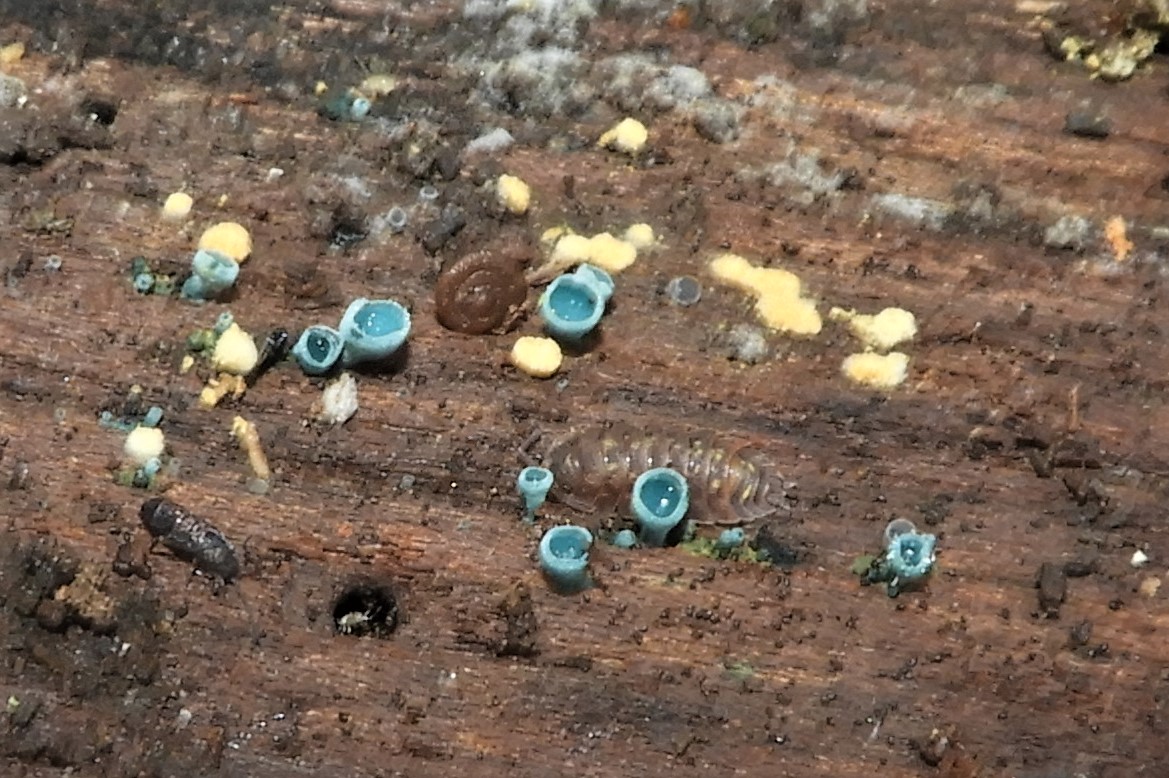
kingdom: Fungi
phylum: Ascomycota
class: Leotiomycetes
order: Helotiales
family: Chlorociboriaceae
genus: Chlorociboria
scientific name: Chlorociboria aeruginascens
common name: almindelig grønskive
